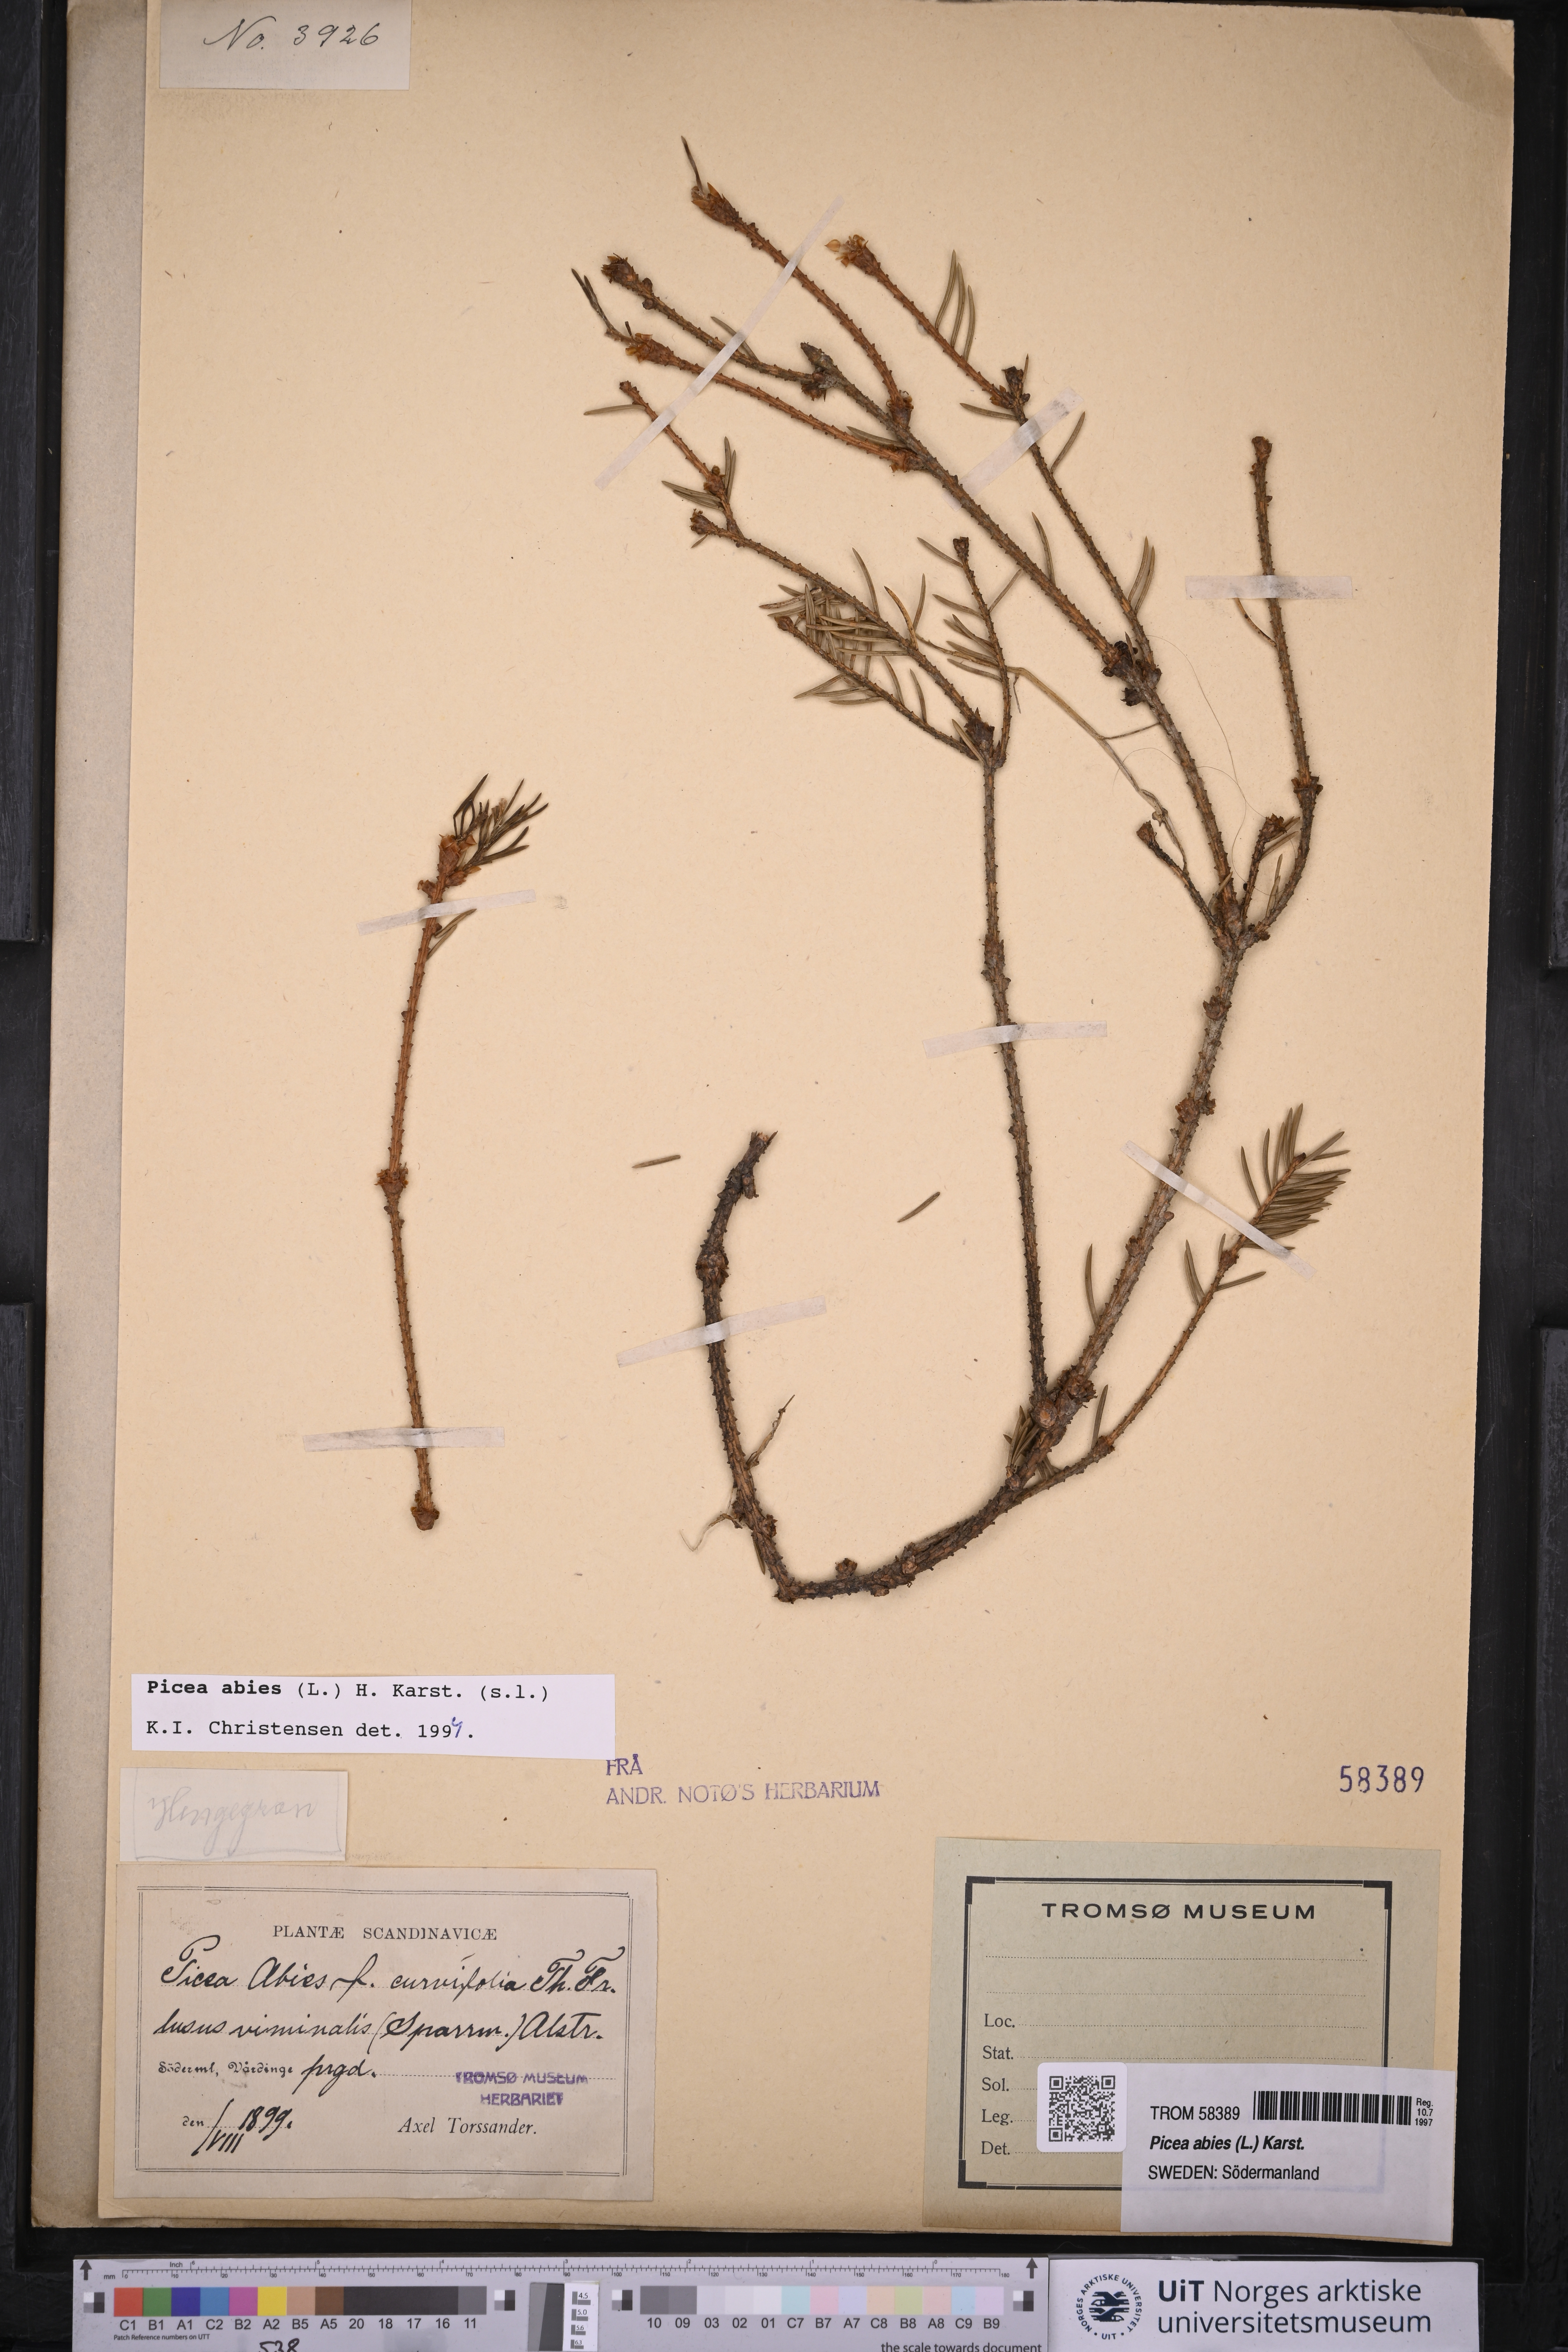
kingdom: Plantae
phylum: Tracheophyta
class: Pinopsida
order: Pinales
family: Pinaceae
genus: Picea
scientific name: Picea abies
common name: Norway spruce
